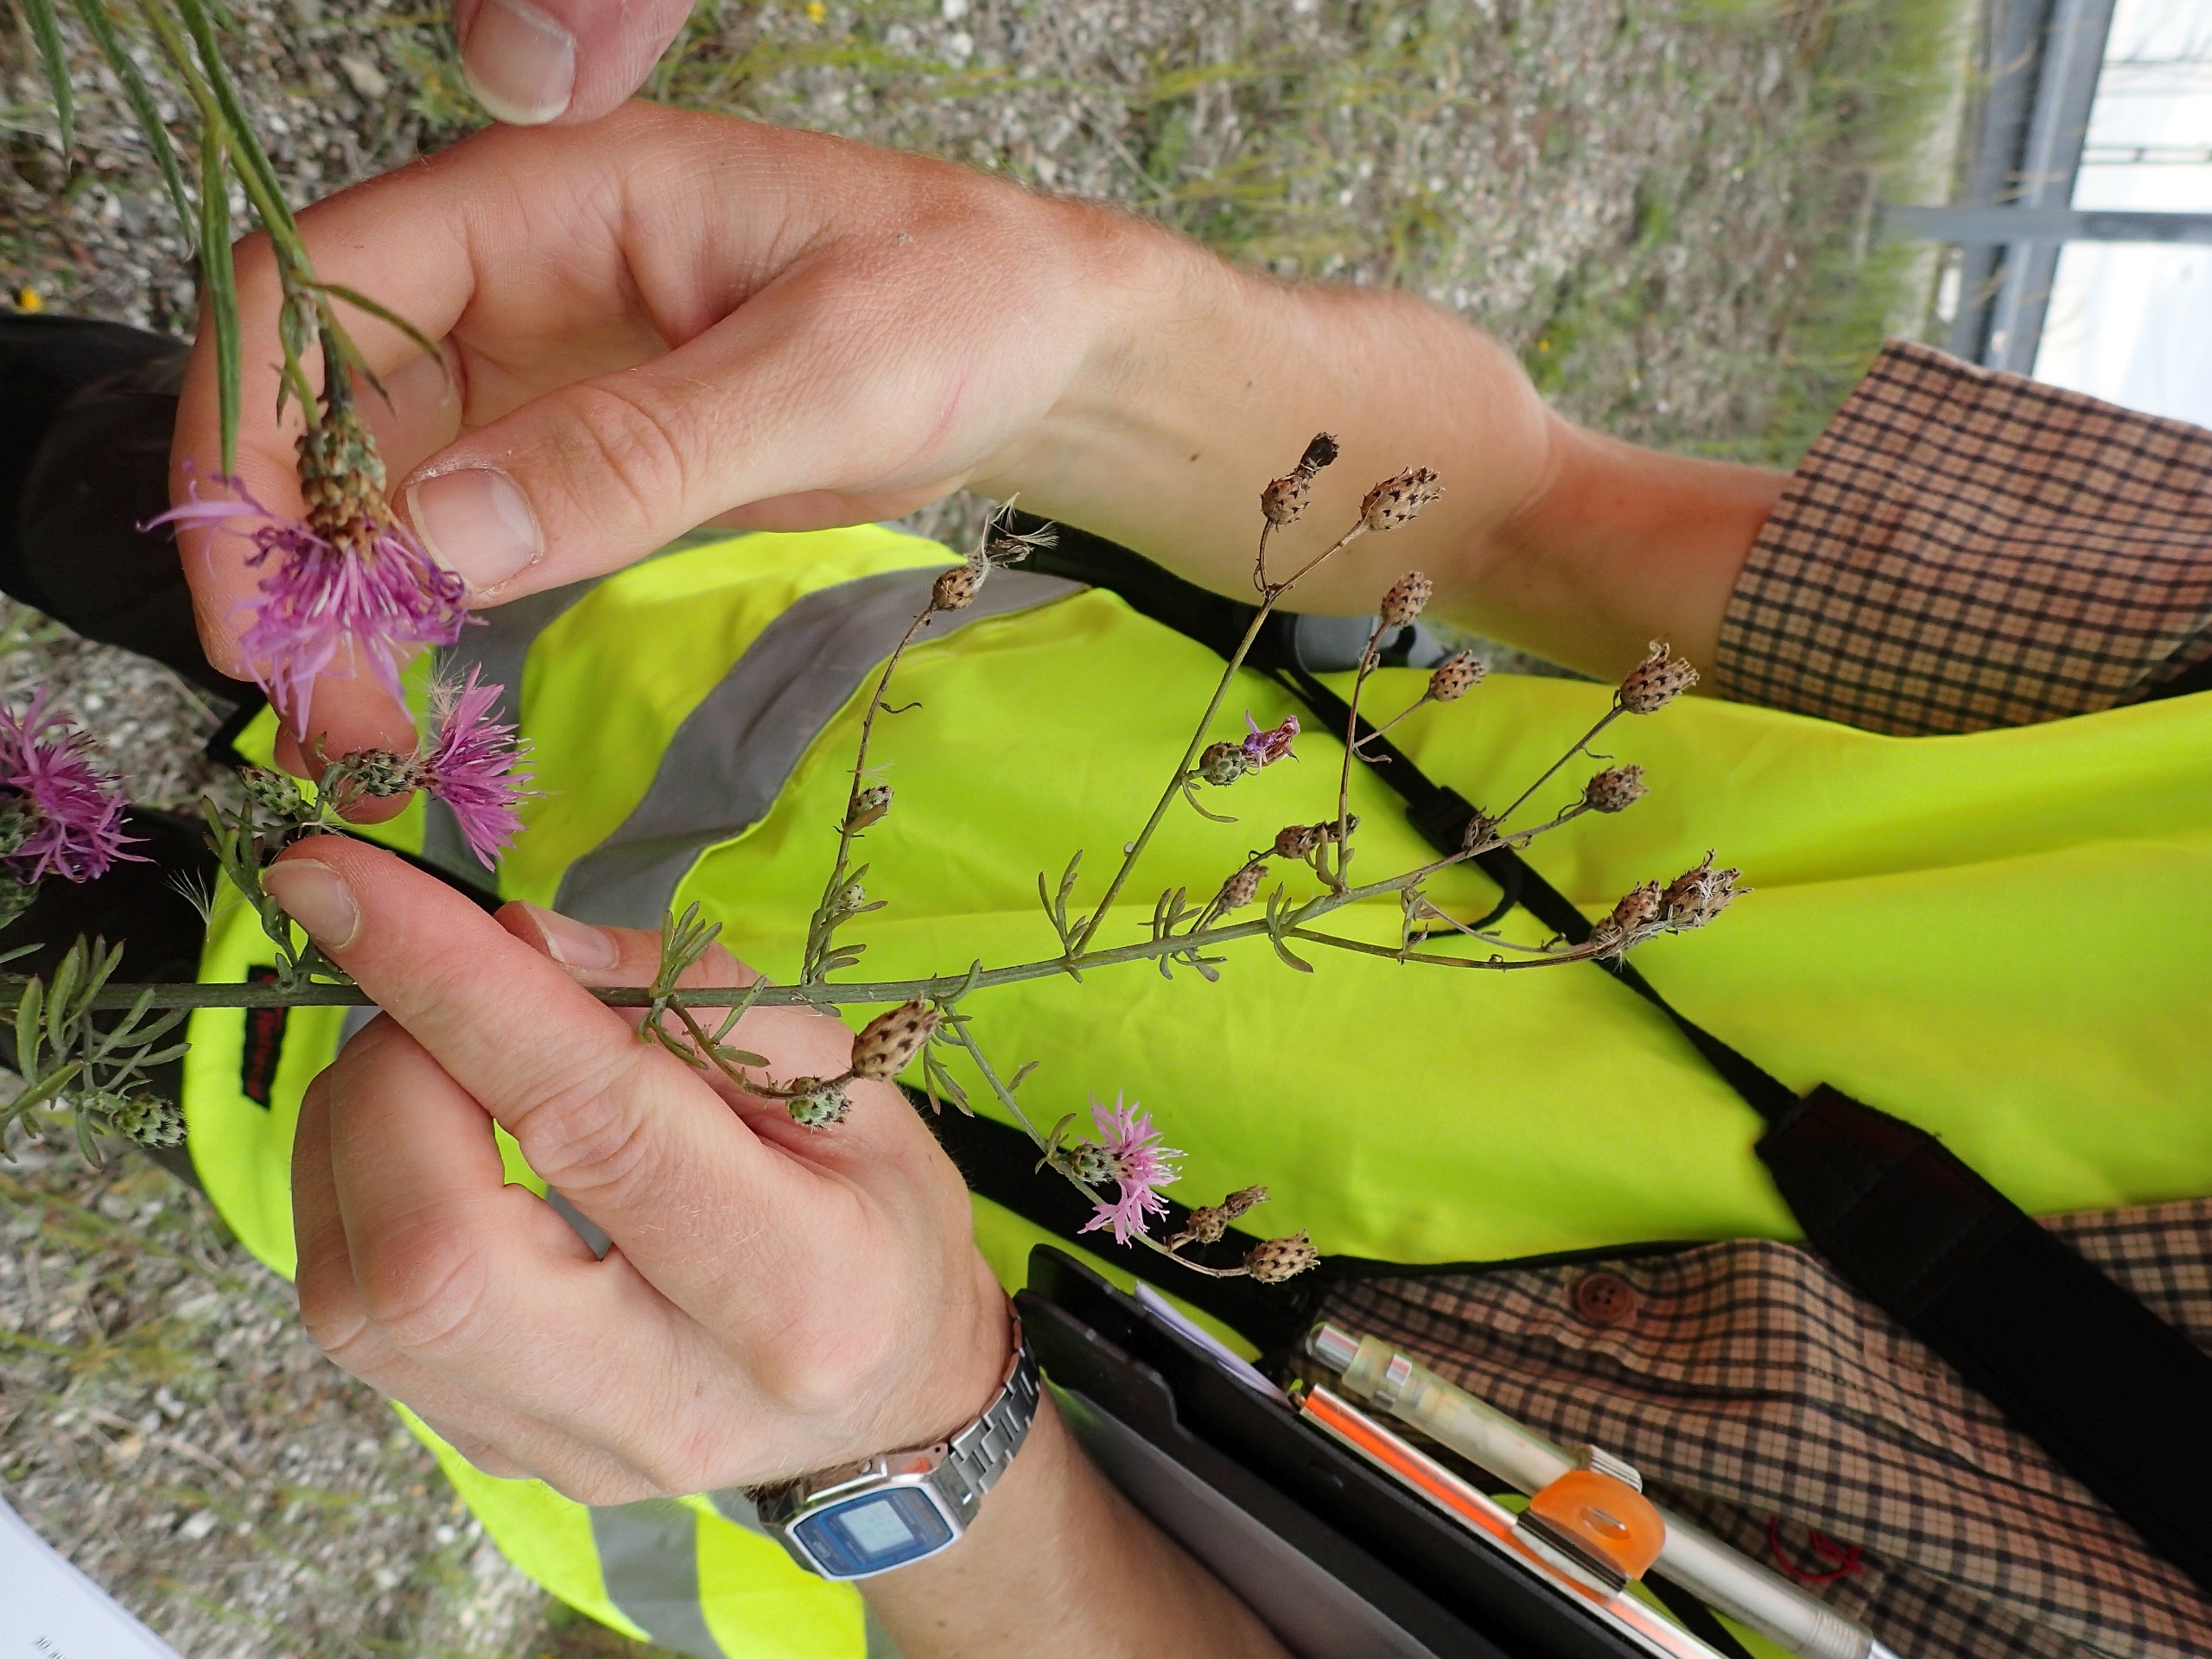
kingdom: Plantae
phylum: Tracheophyta
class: Magnoliopsida
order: Asterales
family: Asteraceae
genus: Centaurea
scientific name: Centaurea stoebe
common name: Mangegrenet knopurt
